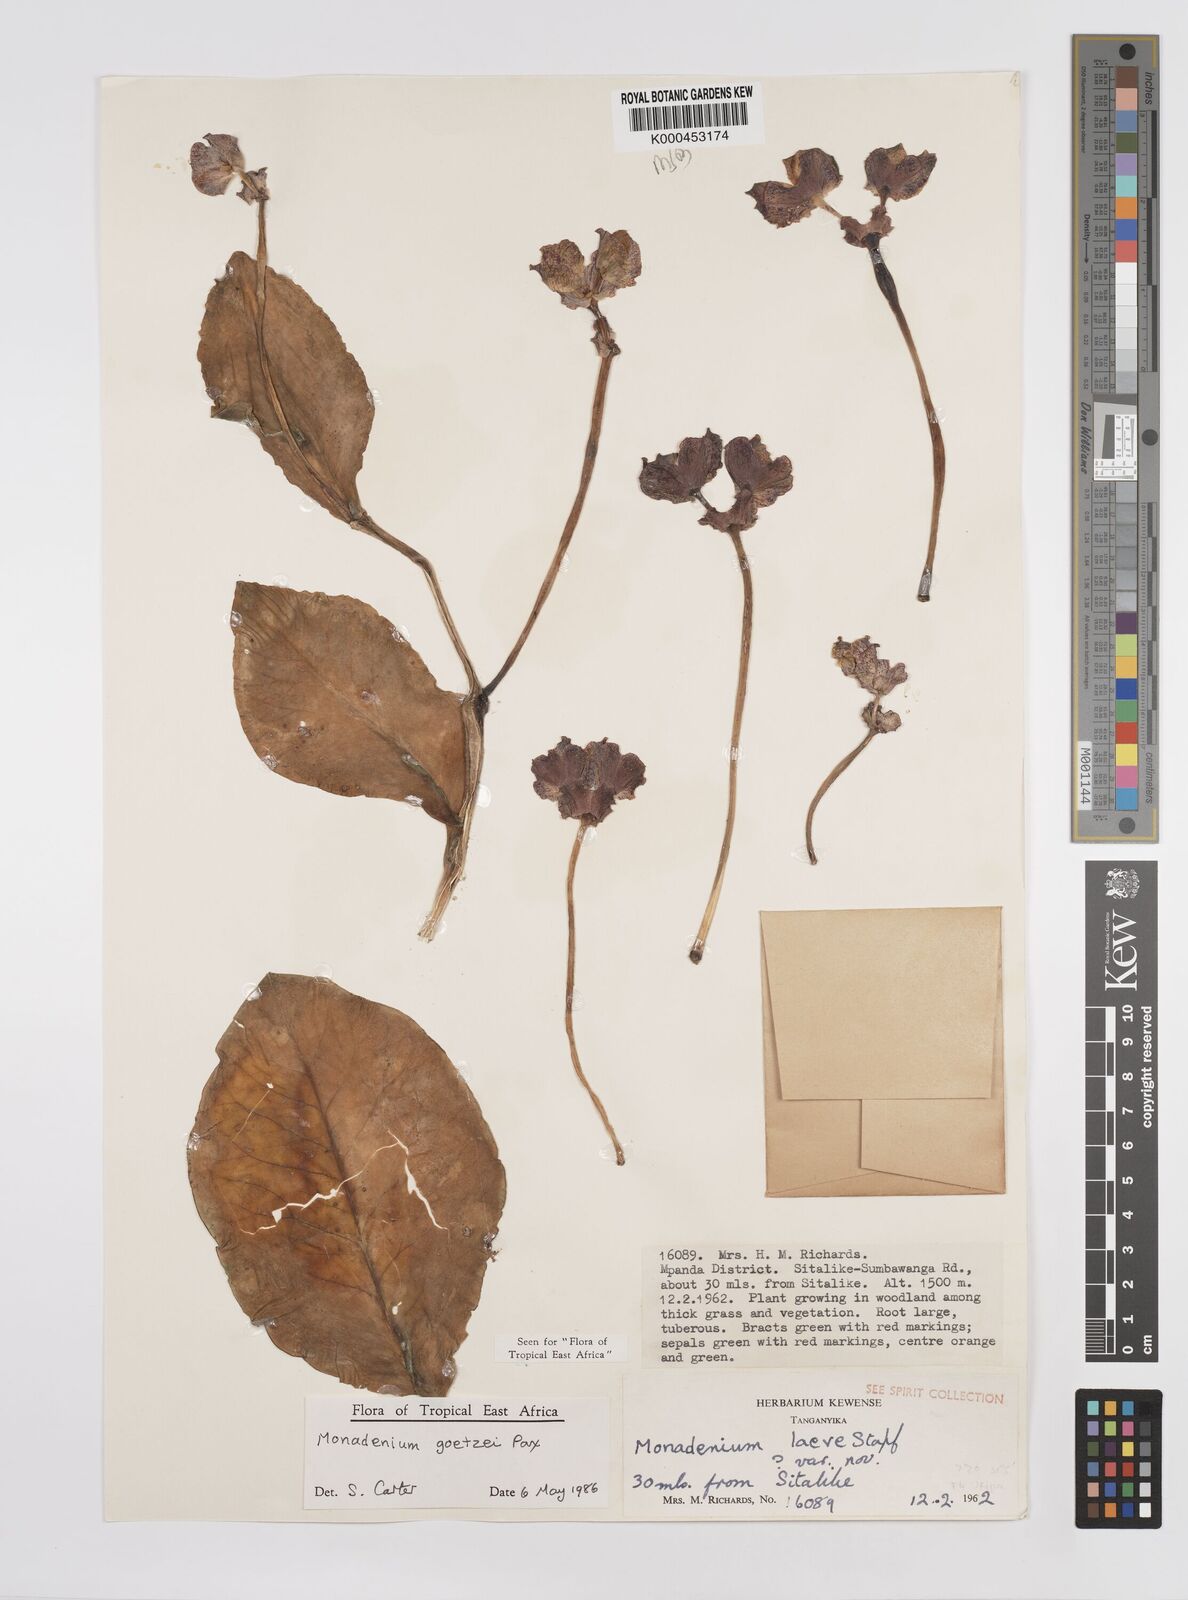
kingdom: Plantae
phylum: Tracheophyta
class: Magnoliopsida
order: Malpighiales
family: Euphorbiaceae
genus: Euphorbia
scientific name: Euphorbia neogoetzei
